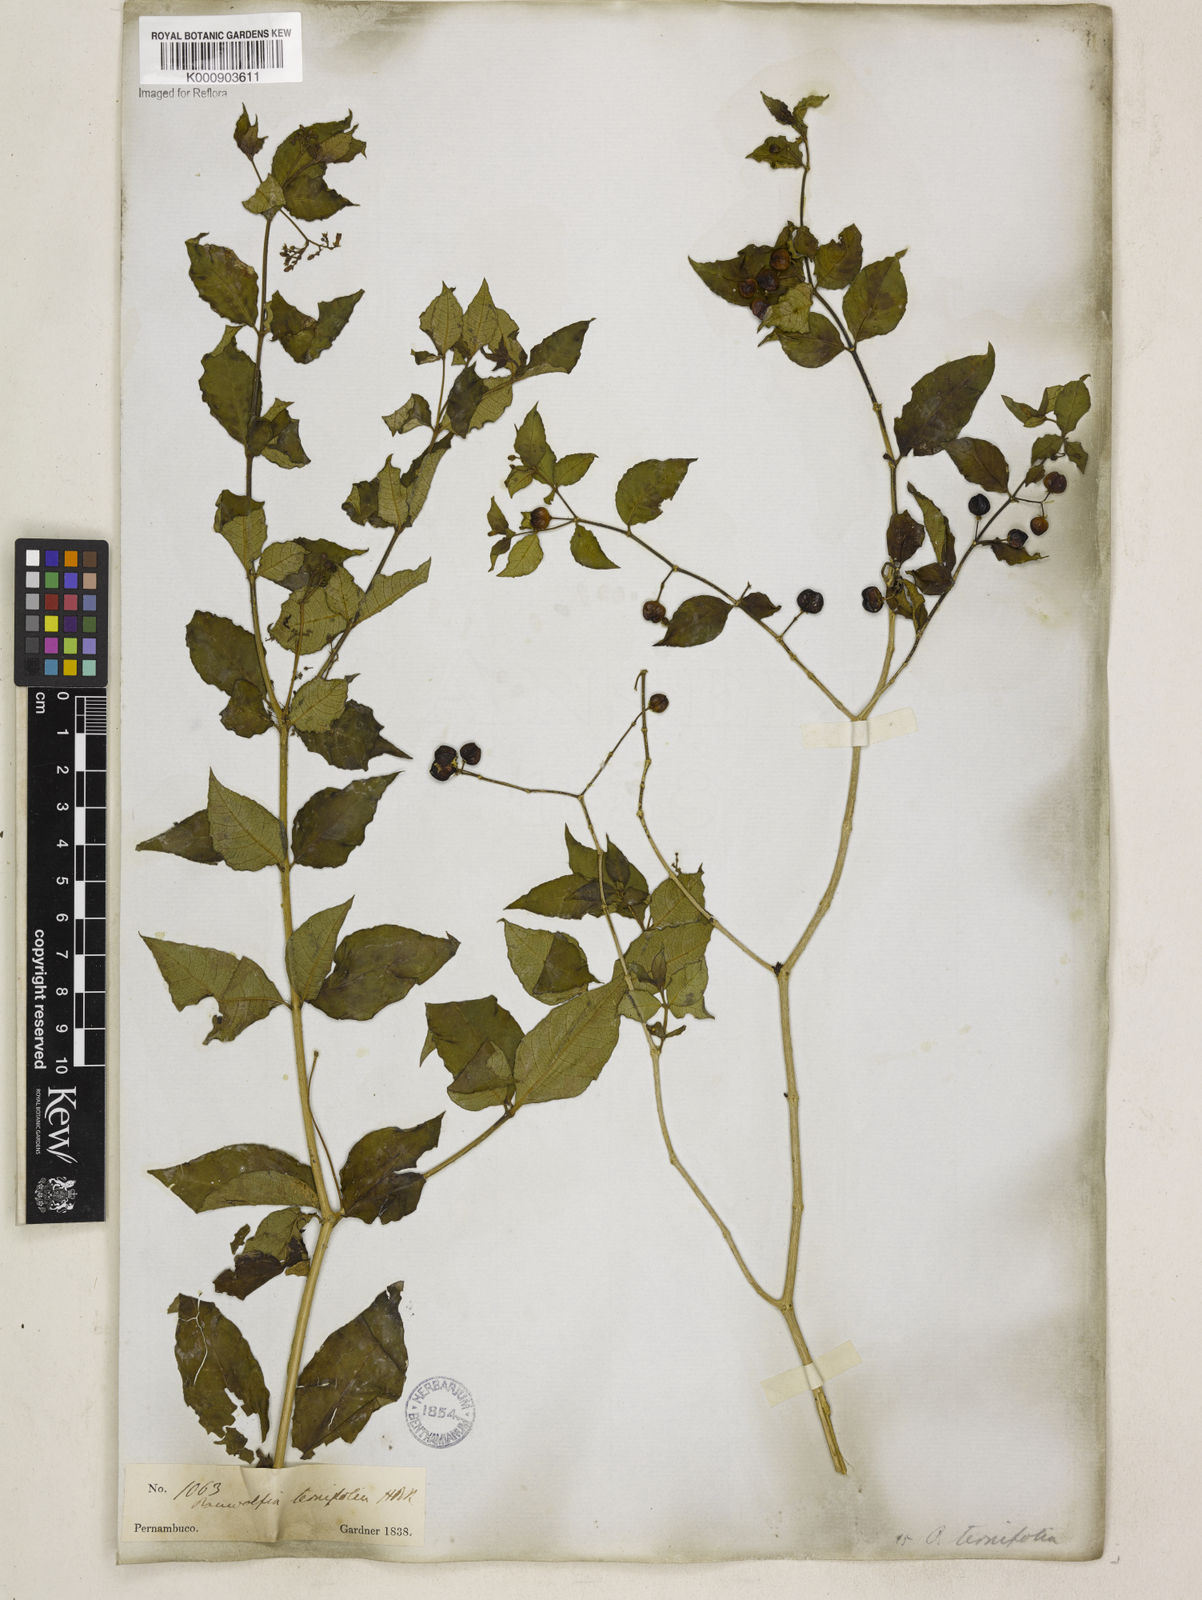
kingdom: Plantae
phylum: Tracheophyta
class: Magnoliopsida
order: Gentianales
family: Apocynaceae
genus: Rauvolfia
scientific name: Rauvolfia
